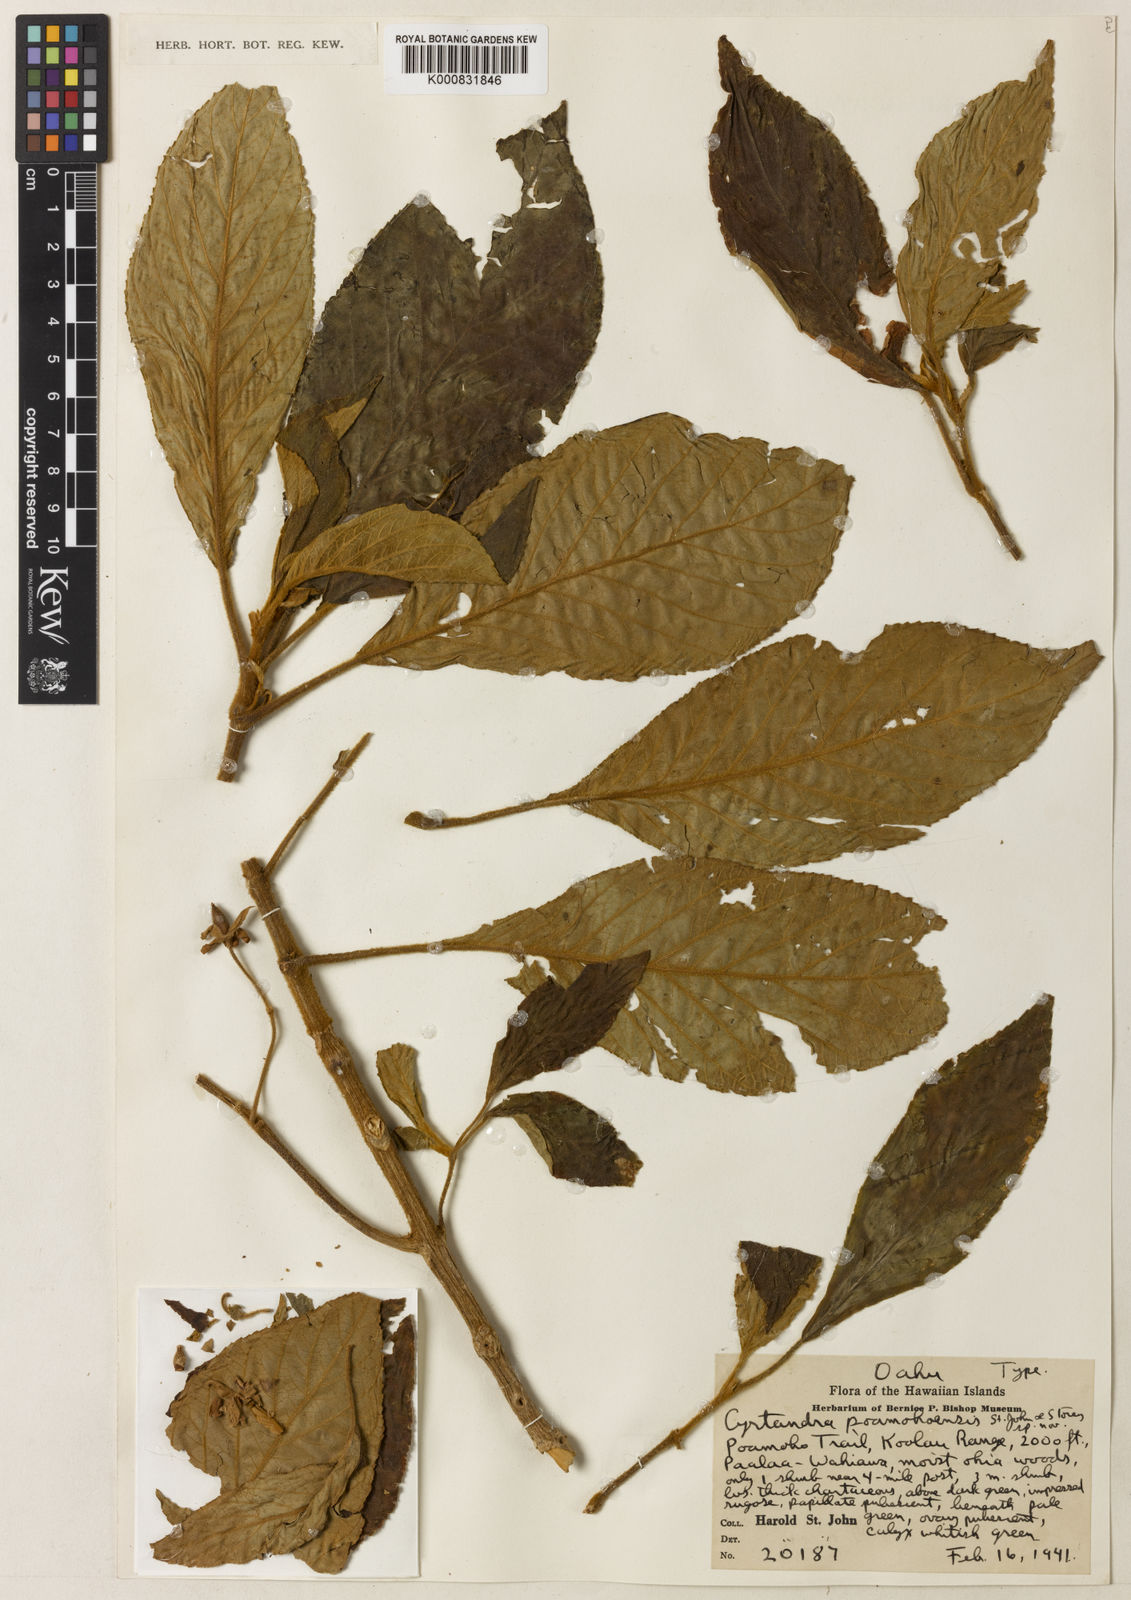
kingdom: Plantae
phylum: Tracheophyta
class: Magnoliopsida
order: Lamiales
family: Gesneriaceae
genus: Cyrtandra
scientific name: Cyrtandra carinata
